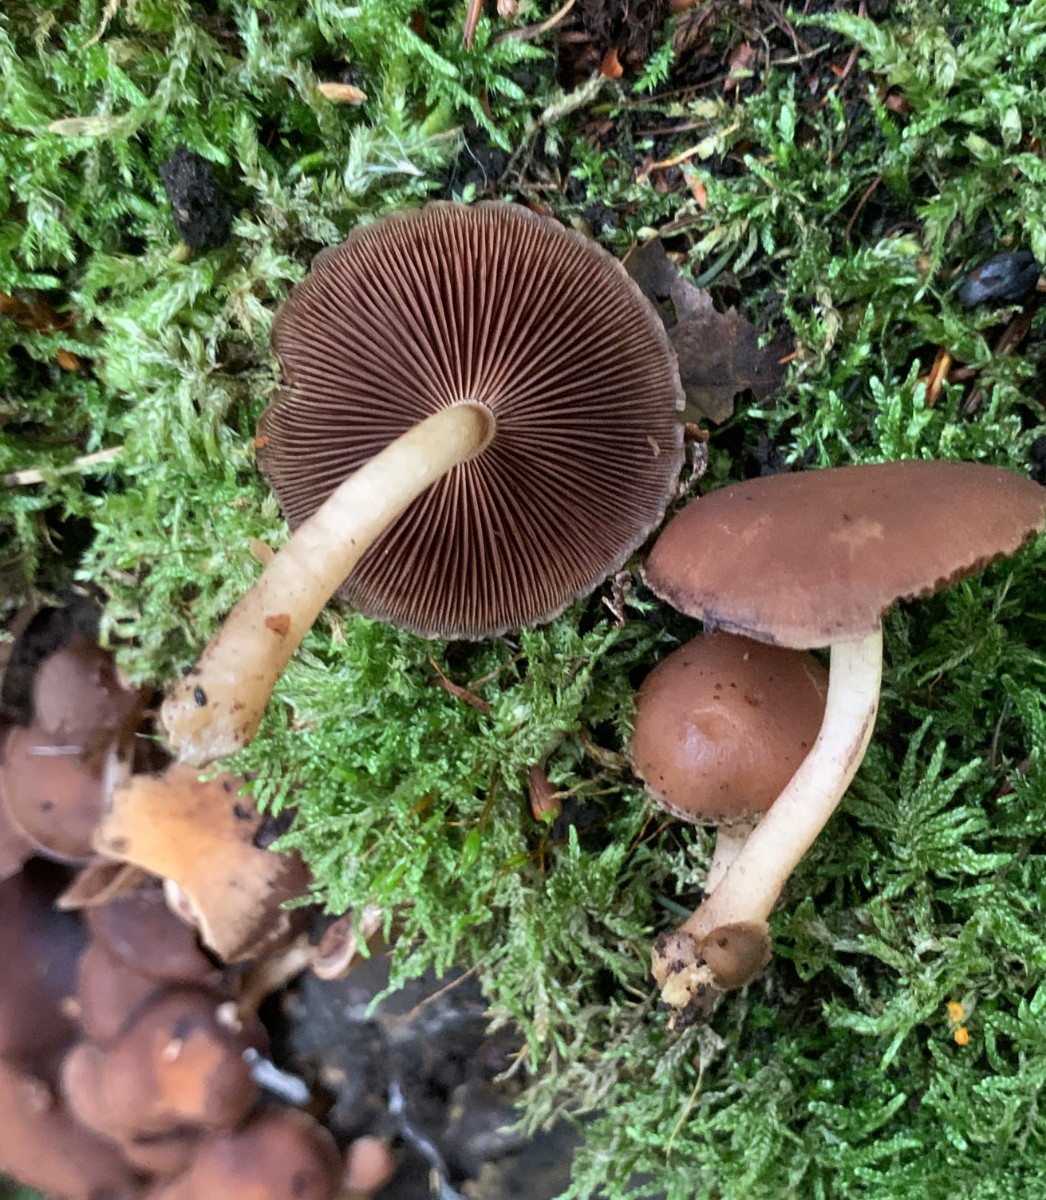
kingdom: Fungi
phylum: Basidiomycota
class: Agaricomycetes
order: Agaricales
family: Psathyrellaceae
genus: Psathyrella
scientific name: Psathyrella piluliformis
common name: lysstokket mørkhat
